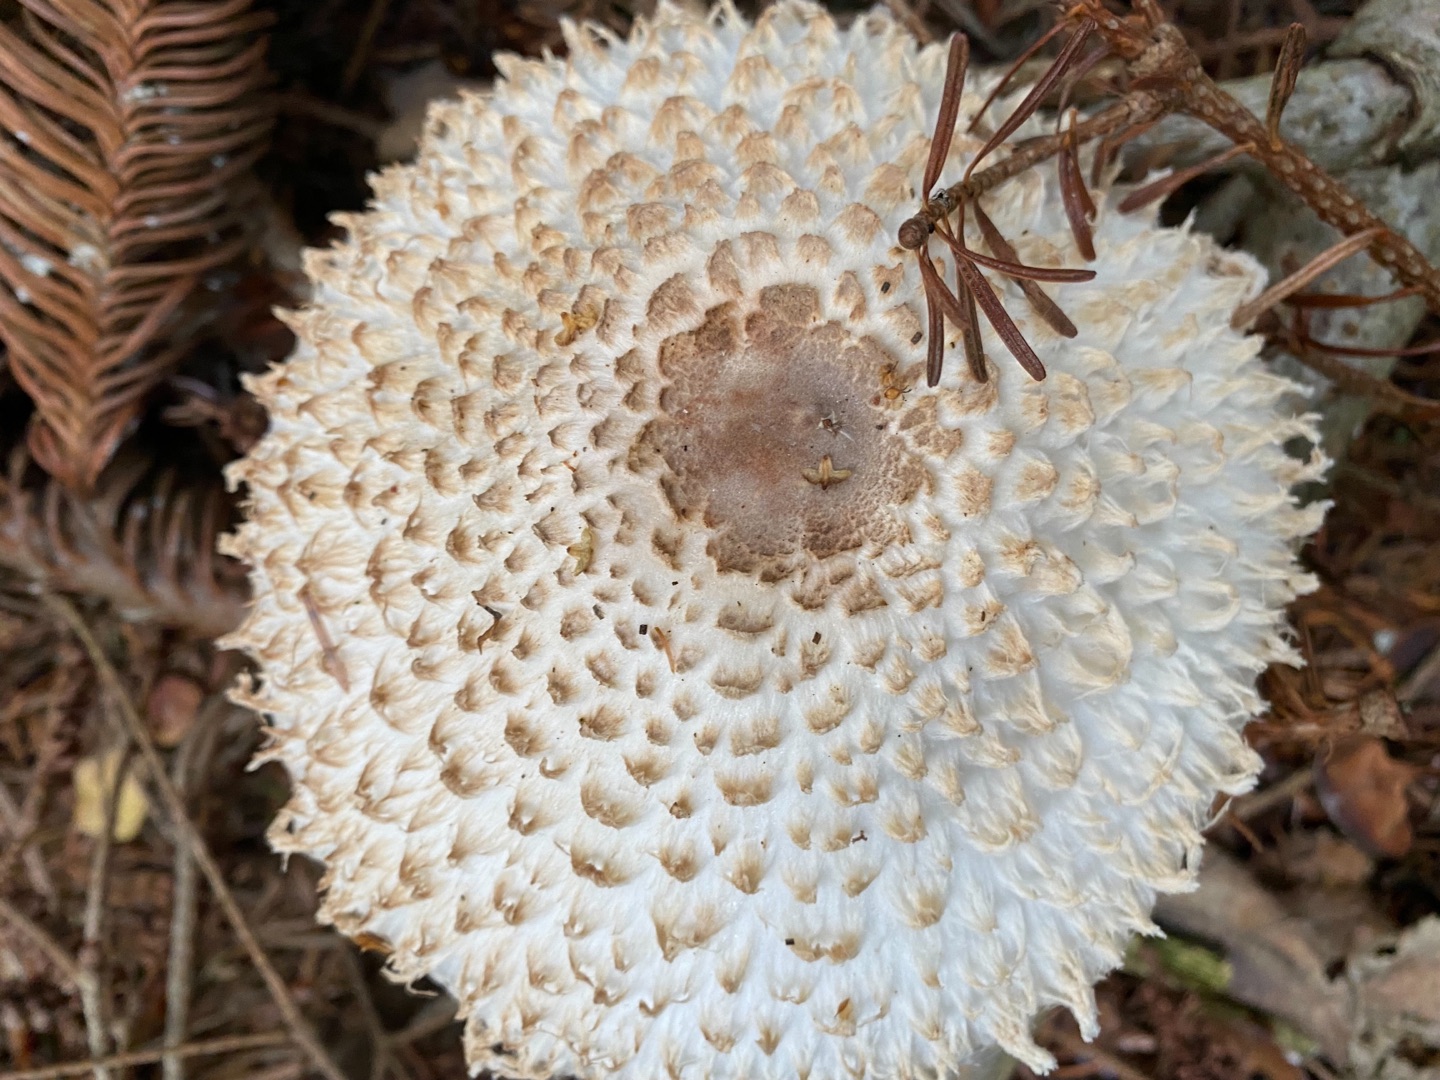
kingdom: Fungi
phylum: Basidiomycota
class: Agaricomycetes
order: Agaricales
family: Agaricaceae
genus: Leucoagaricus
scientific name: Leucoagaricus nympharum
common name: Gran-silkehat
